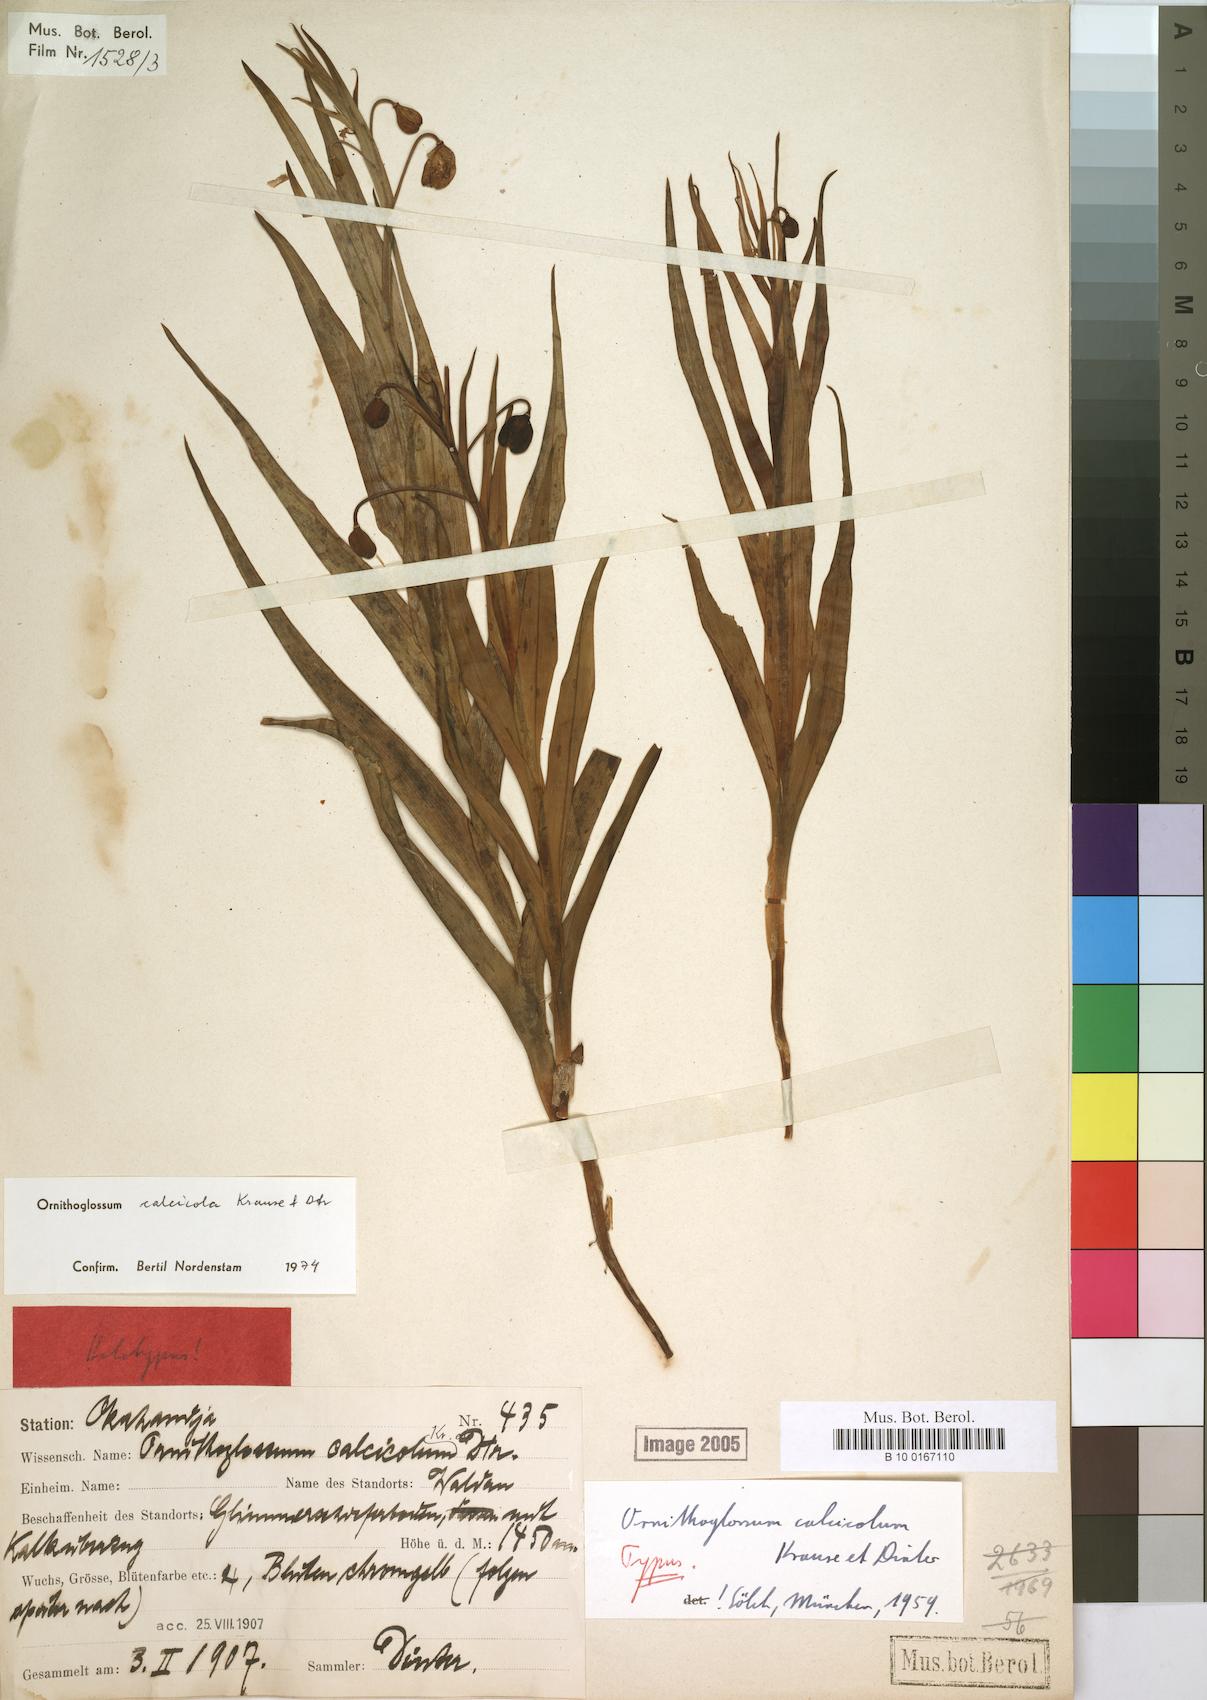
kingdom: Plantae
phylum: Tracheophyta
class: Liliopsida
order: Liliales
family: Colchicaceae
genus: Ornithoglossum
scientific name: Ornithoglossum calcicola
